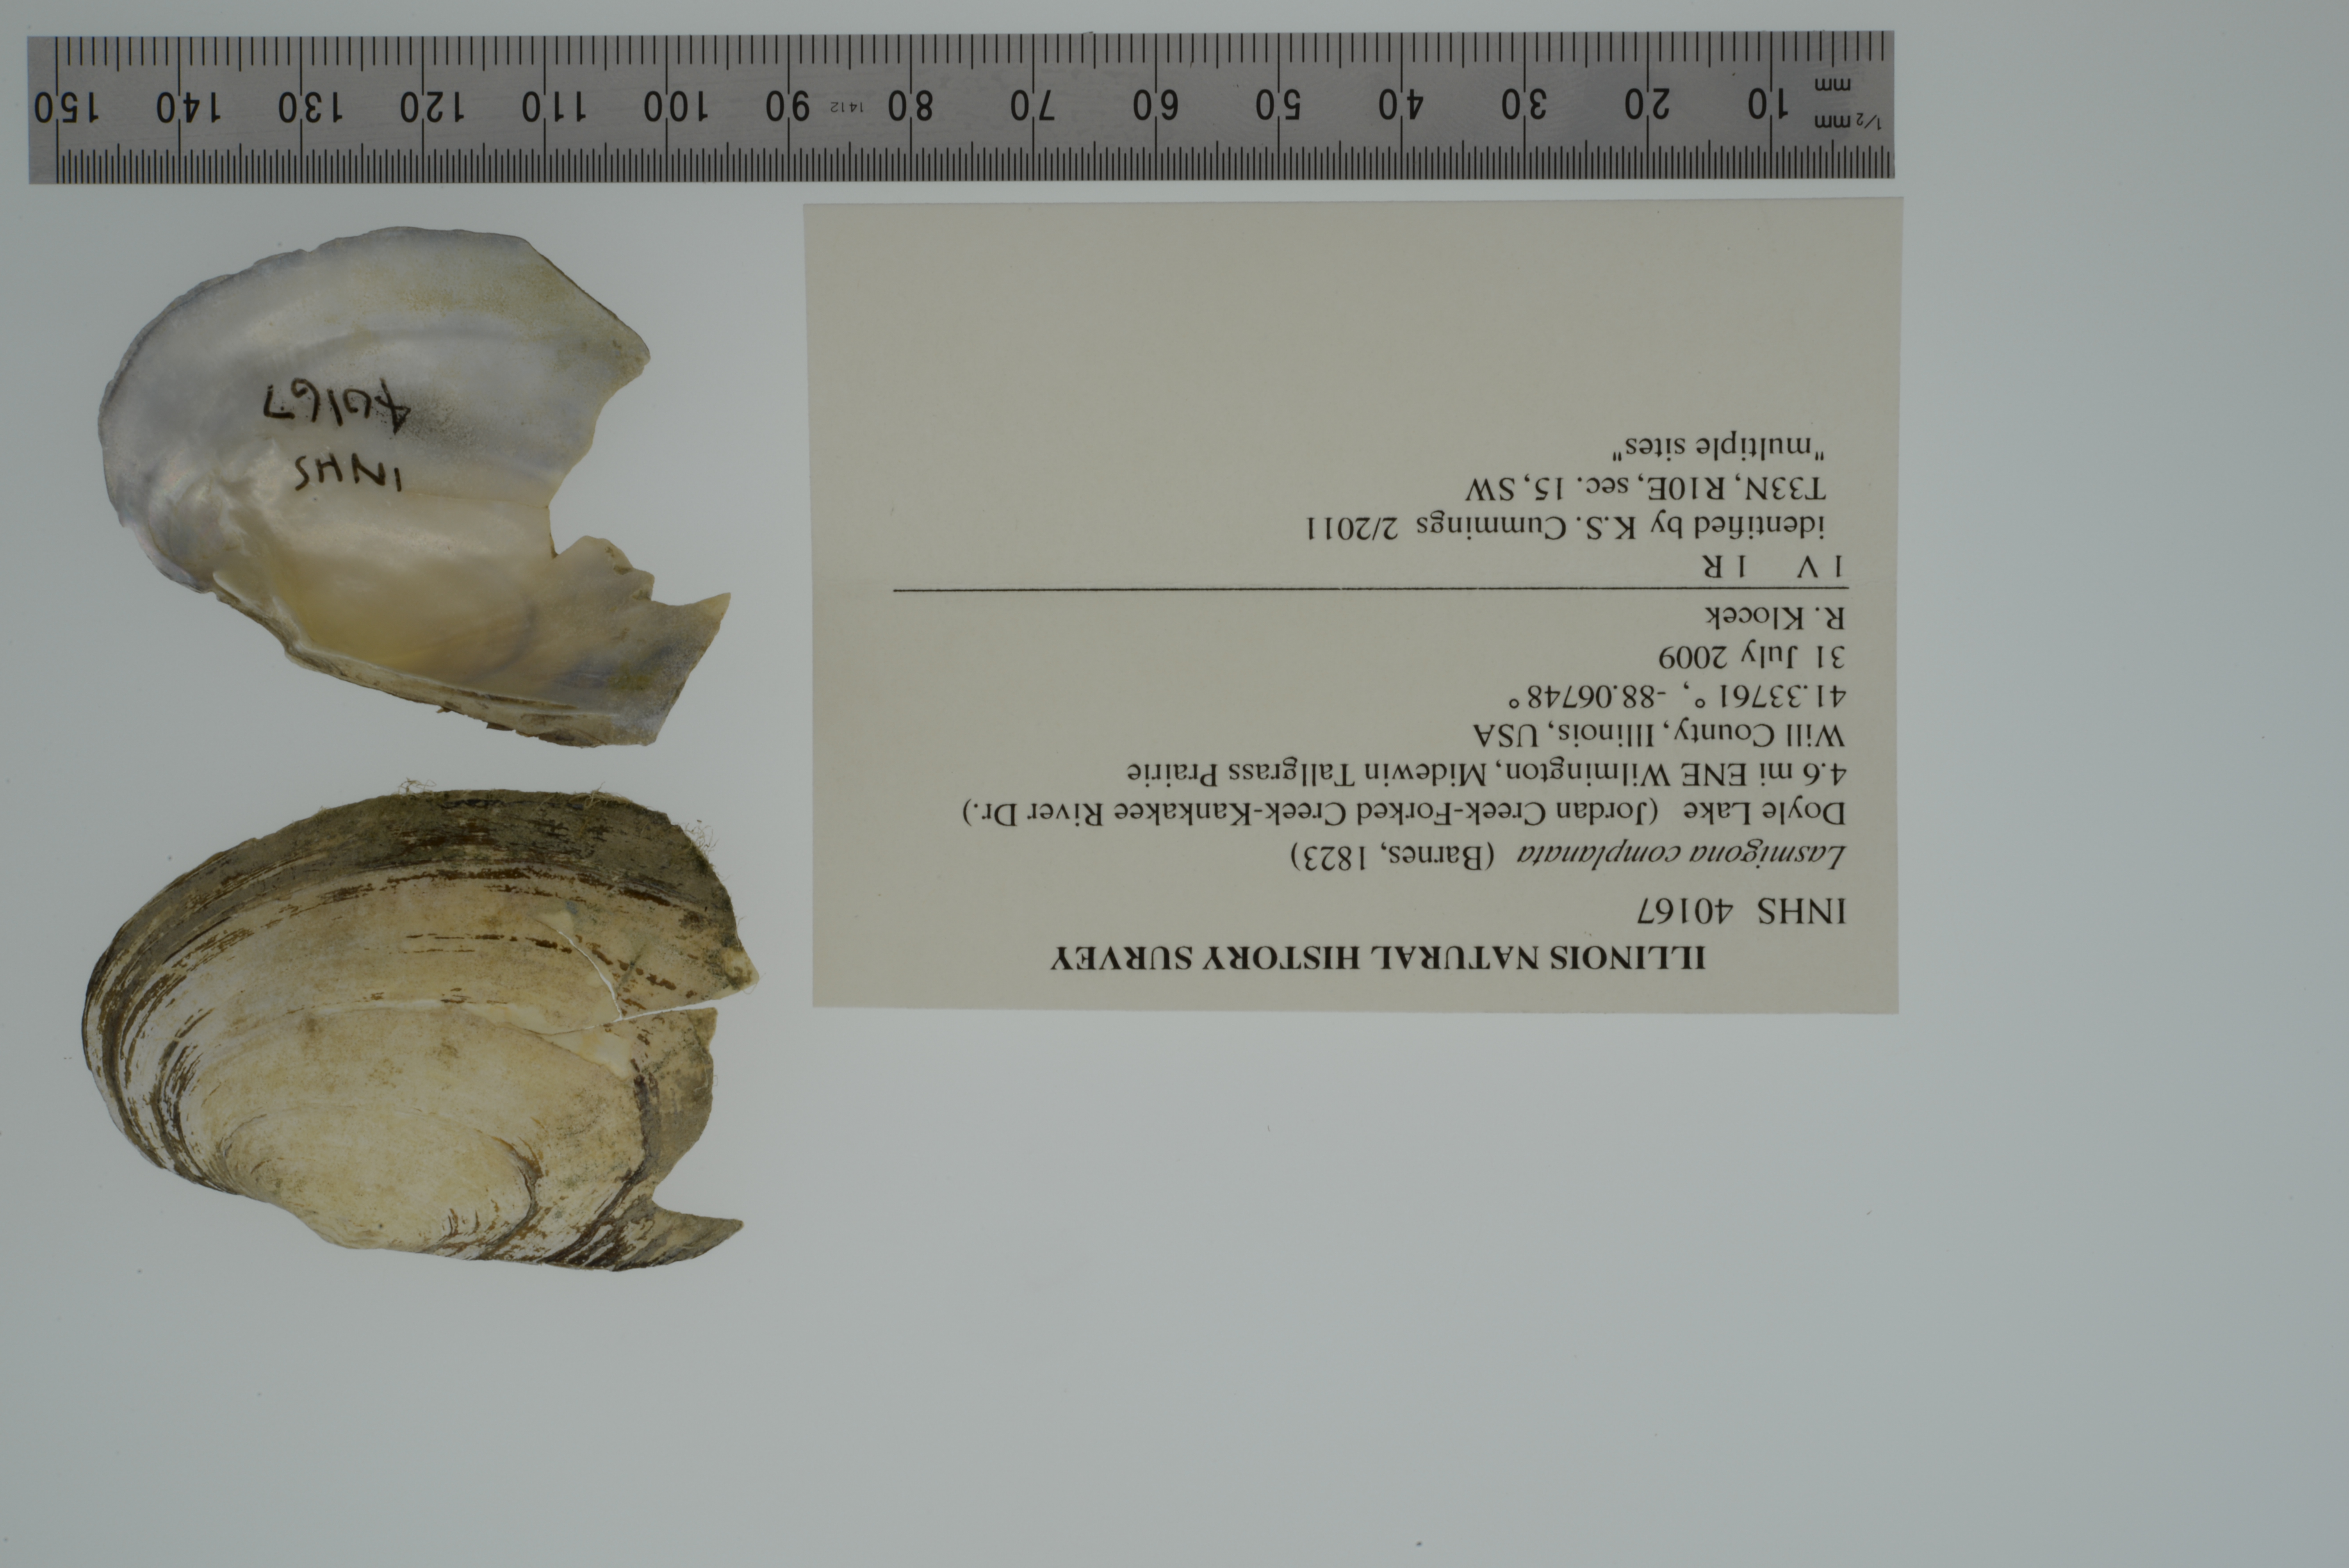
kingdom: Animalia
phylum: Mollusca
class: Bivalvia
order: Unionida
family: Unionidae
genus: Lasmigona
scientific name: Lasmigona complanata
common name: White heelsplitter
